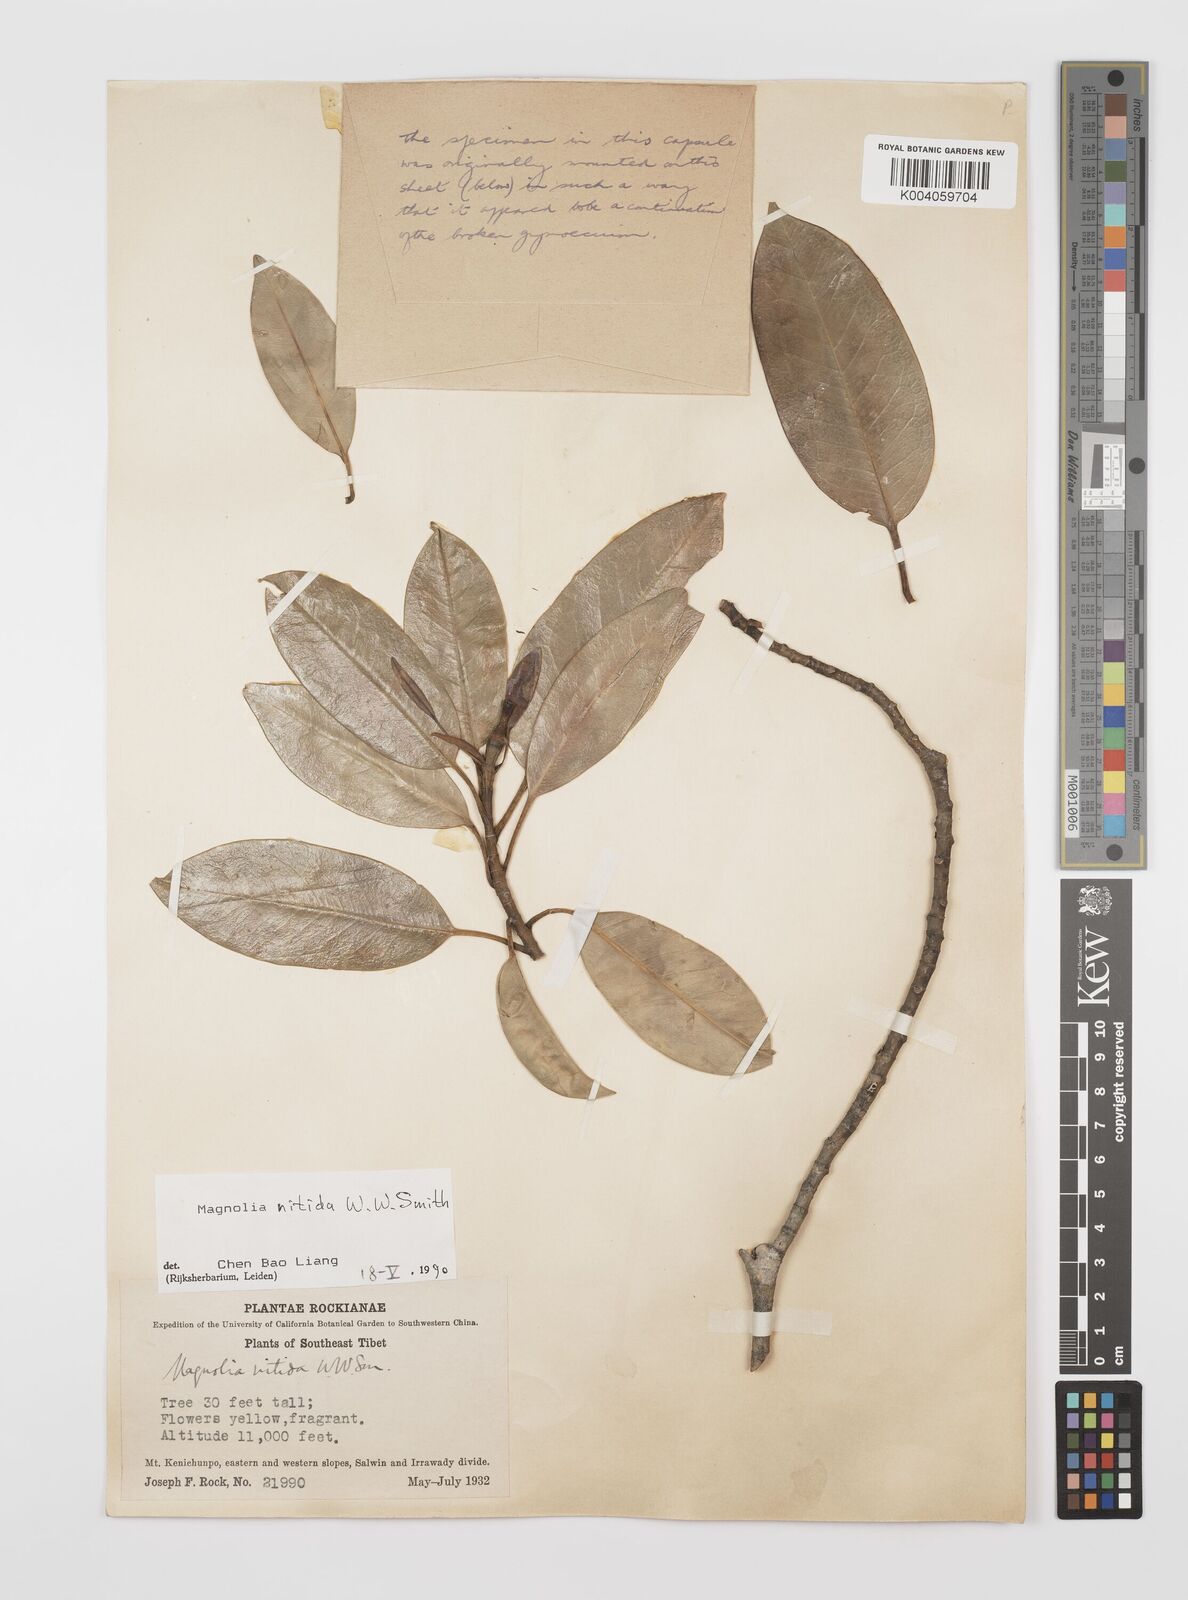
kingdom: Plantae
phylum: Tracheophyta
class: Magnoliopsida
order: Magnoliales
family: Magnoliaceae
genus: Magnolia
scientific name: Magnolia nitida
